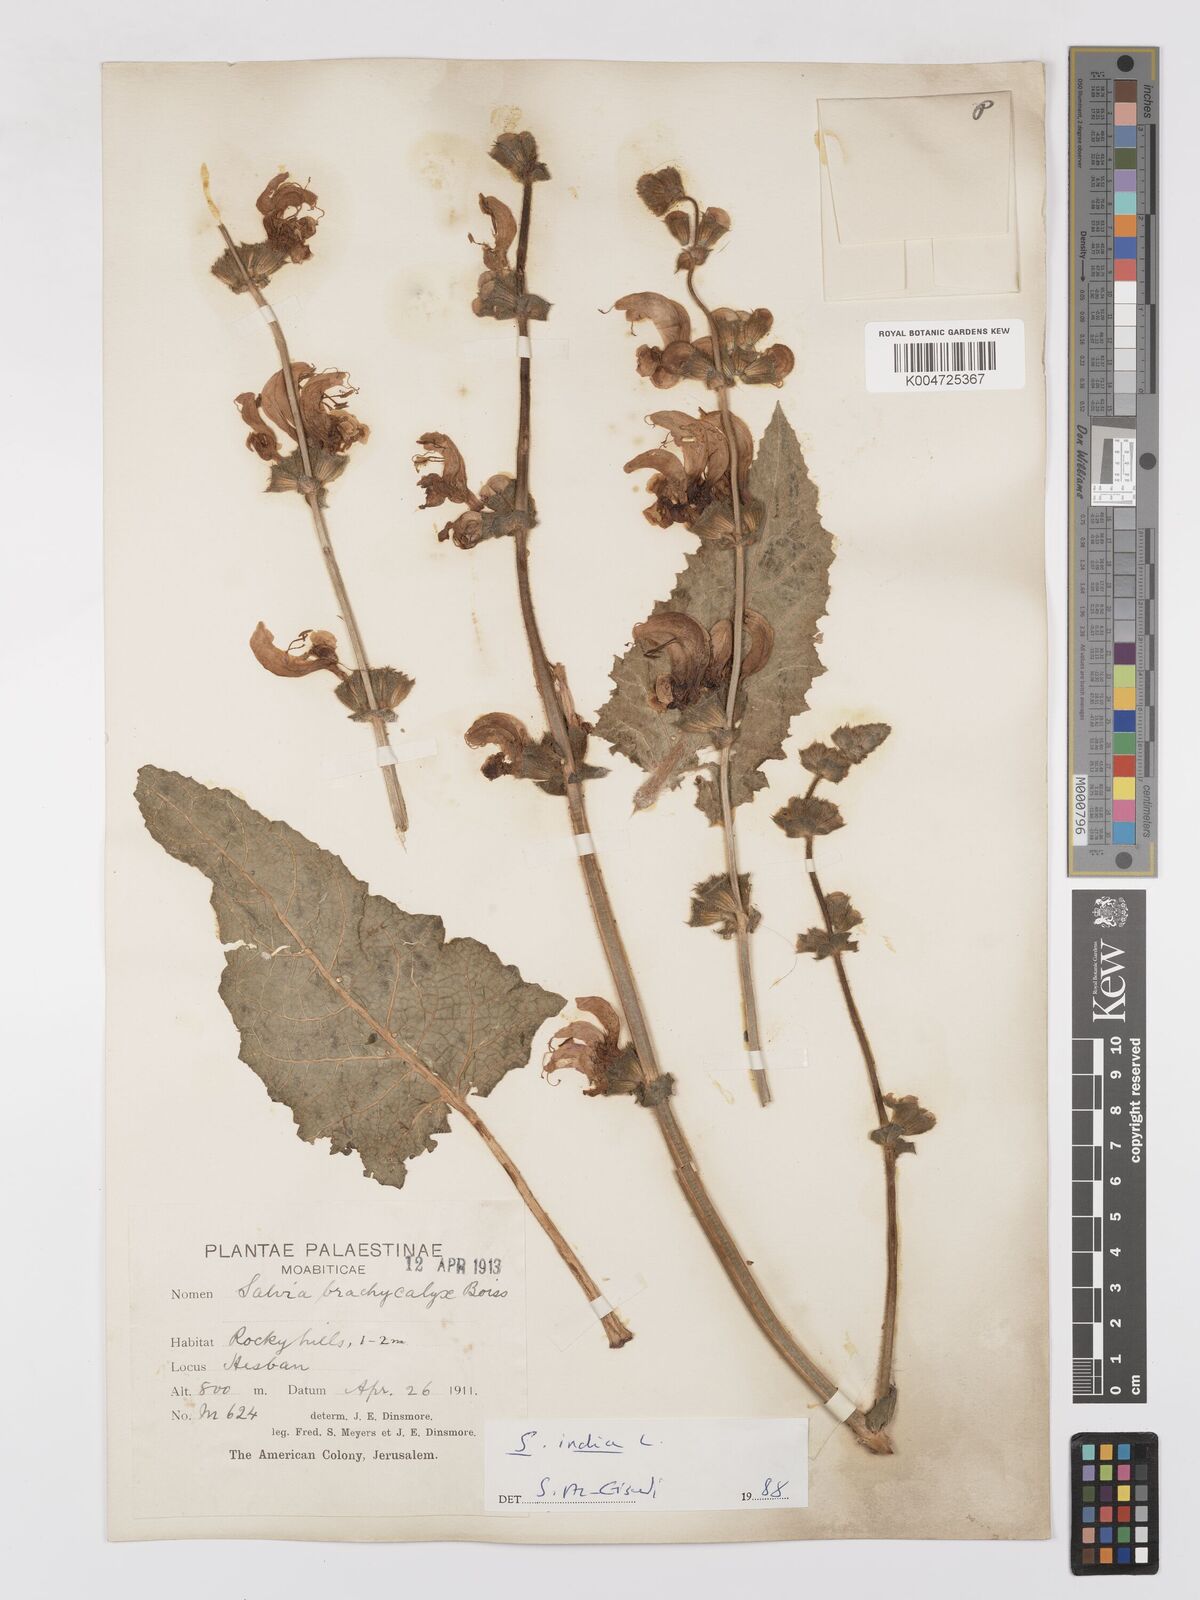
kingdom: Plantae
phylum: Tracheophyta
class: Magnoliopsida
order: Lamiales
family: Lamiaceae
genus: Salvia
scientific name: Salvia indica
